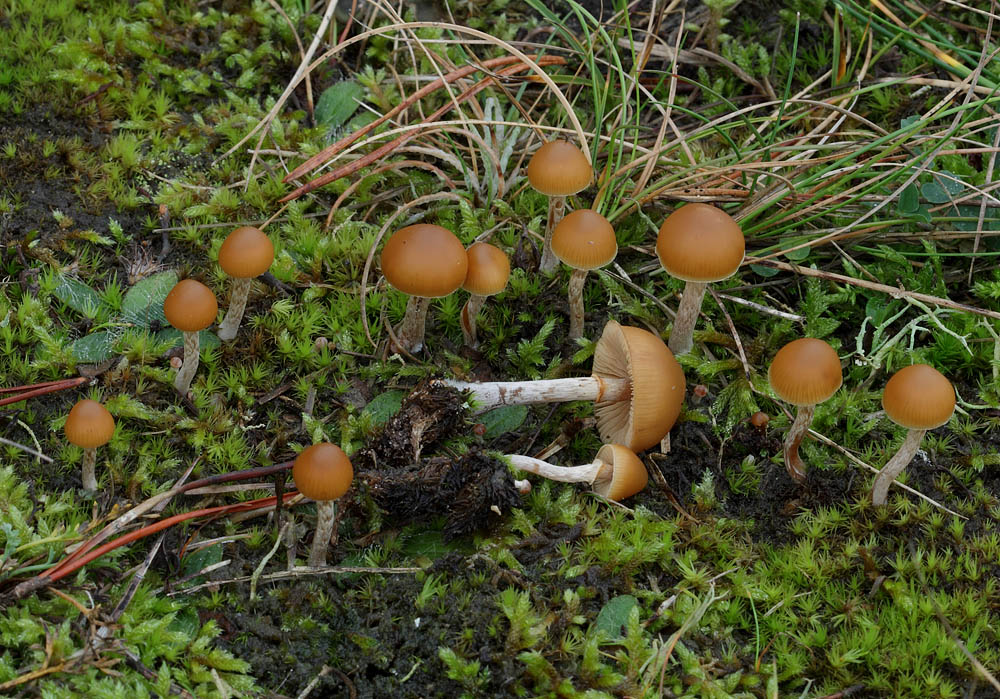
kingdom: Fungi
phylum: Basidiomycota
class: Agaricomycetes
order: Agaricales
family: Hymenogastraceae
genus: Galerina
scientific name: Galerina marginata
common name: randbæltet hjelmhat
